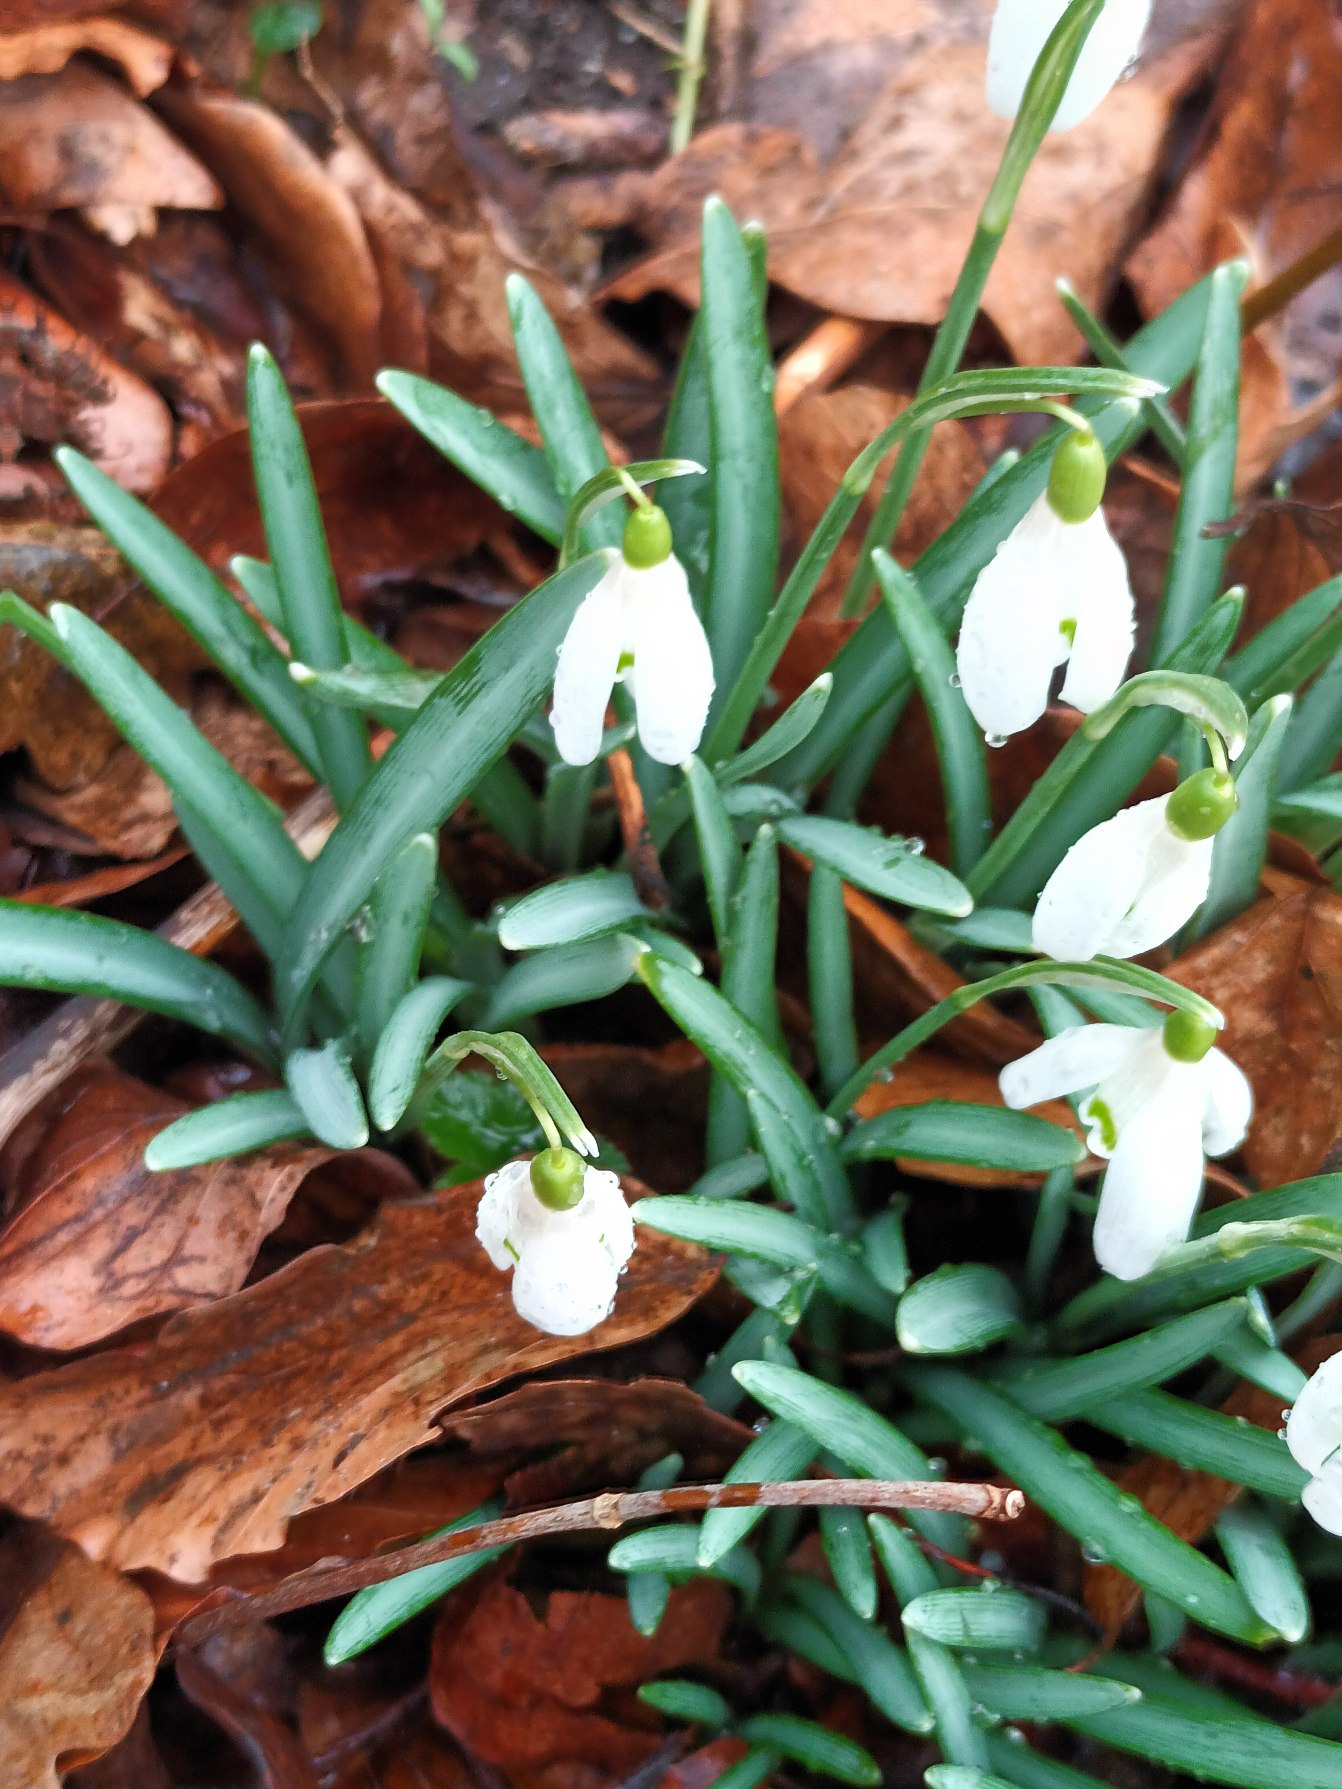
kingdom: Plantae
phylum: Tracheophyta
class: Liliopsida
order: Asparagales
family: Amaryllidaceae
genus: Galanthus
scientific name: Galanthus nivalis
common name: Vintergæk
